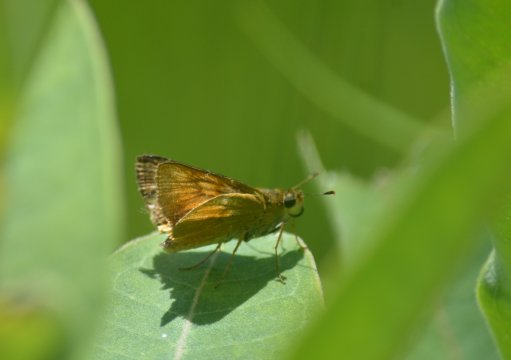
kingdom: Animalia
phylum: Arthropoda
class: Insecta
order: Lepidoptera
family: Hesperiidae
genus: Atrytone
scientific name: Atrytone delaware
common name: Delaware Skipper
